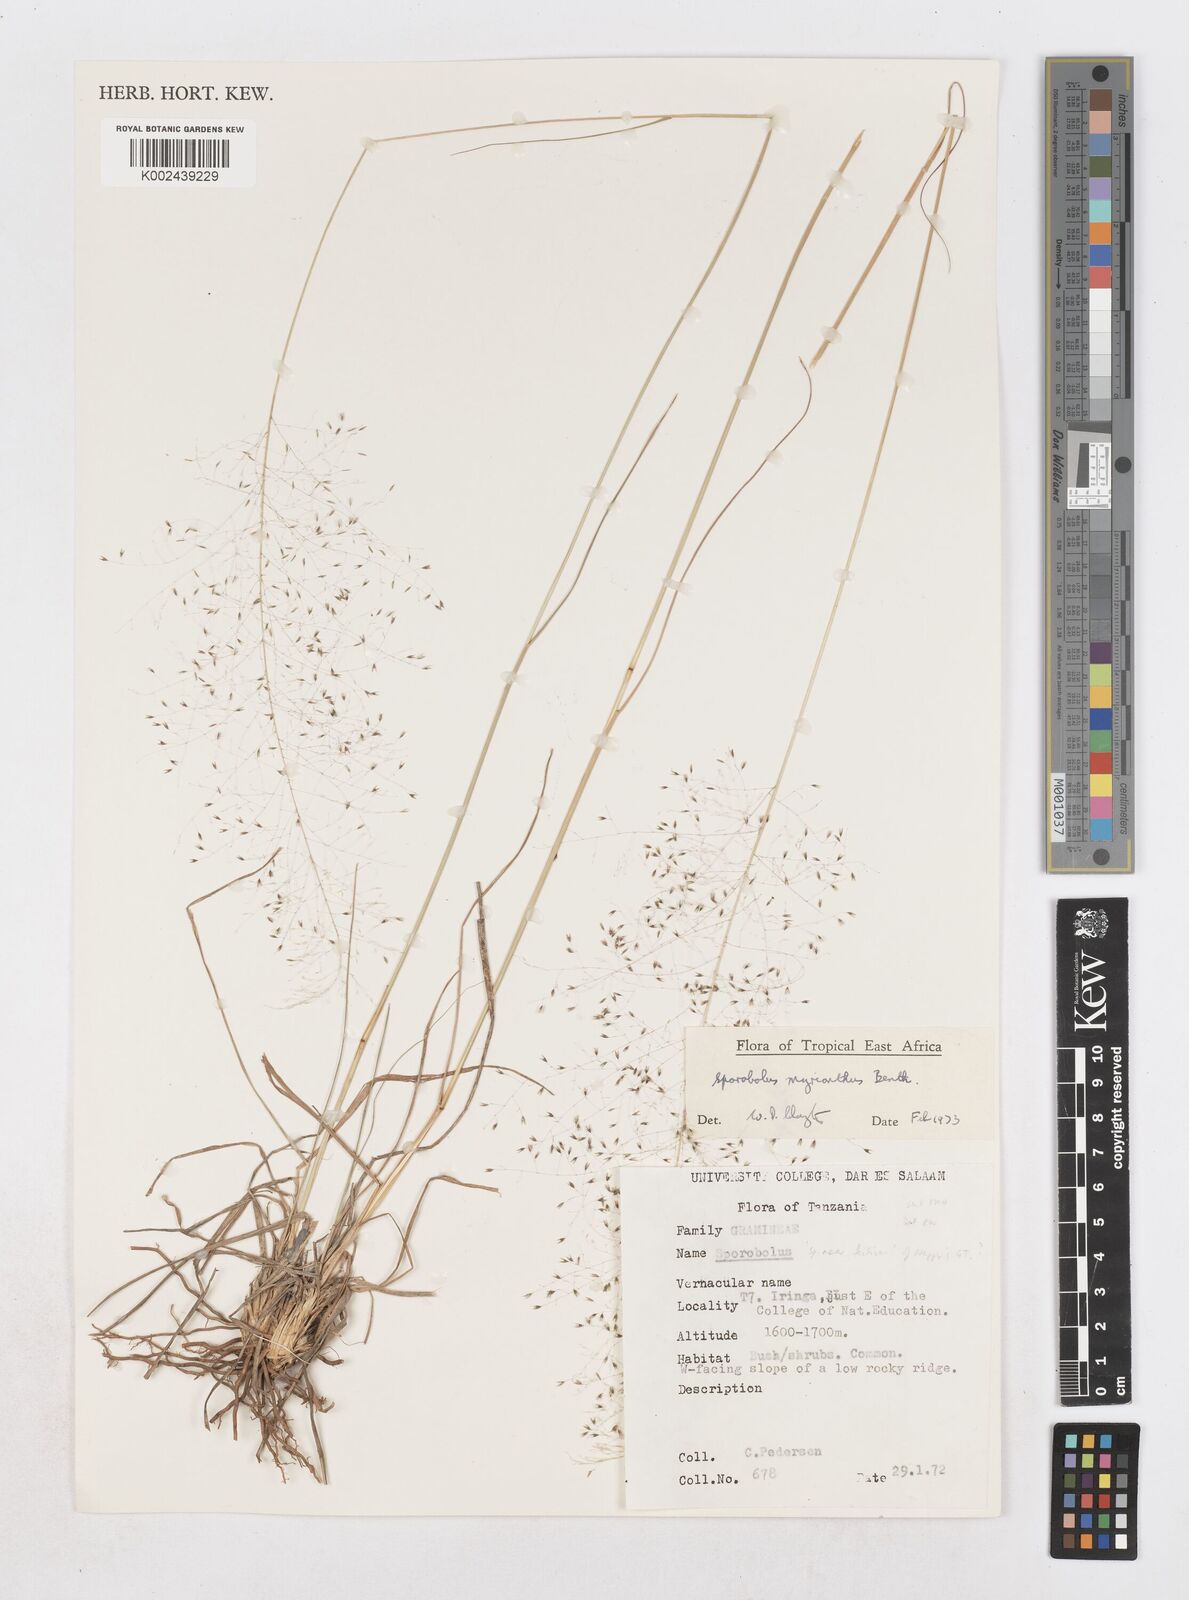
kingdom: Plantae
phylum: Tracheophyta
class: Liliopsida
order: Poales
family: Poaceae
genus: Sporobolus
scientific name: Sporobolus myrianthus
